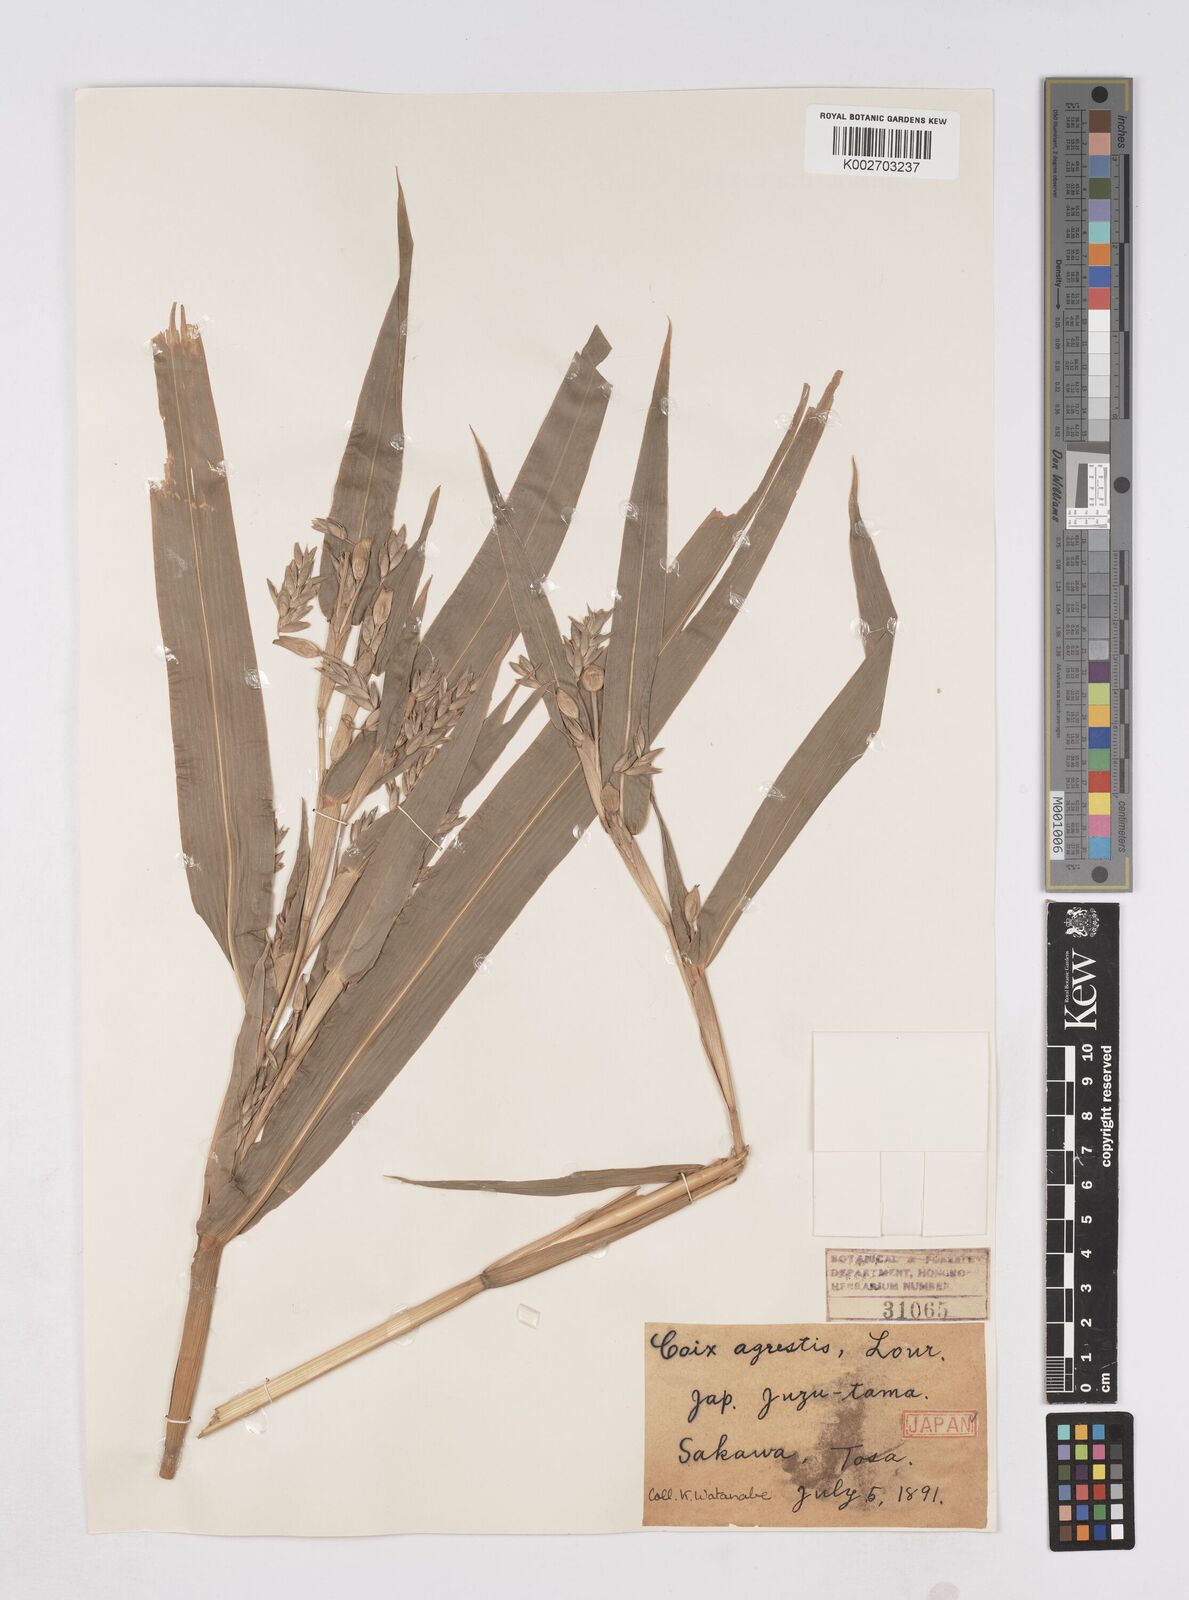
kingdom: Plantae
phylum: Tracheophyta
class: Liliopsida
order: Poales
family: Poaceae
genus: Coix
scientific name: Coix lacryma-jobi
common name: Job's tears
